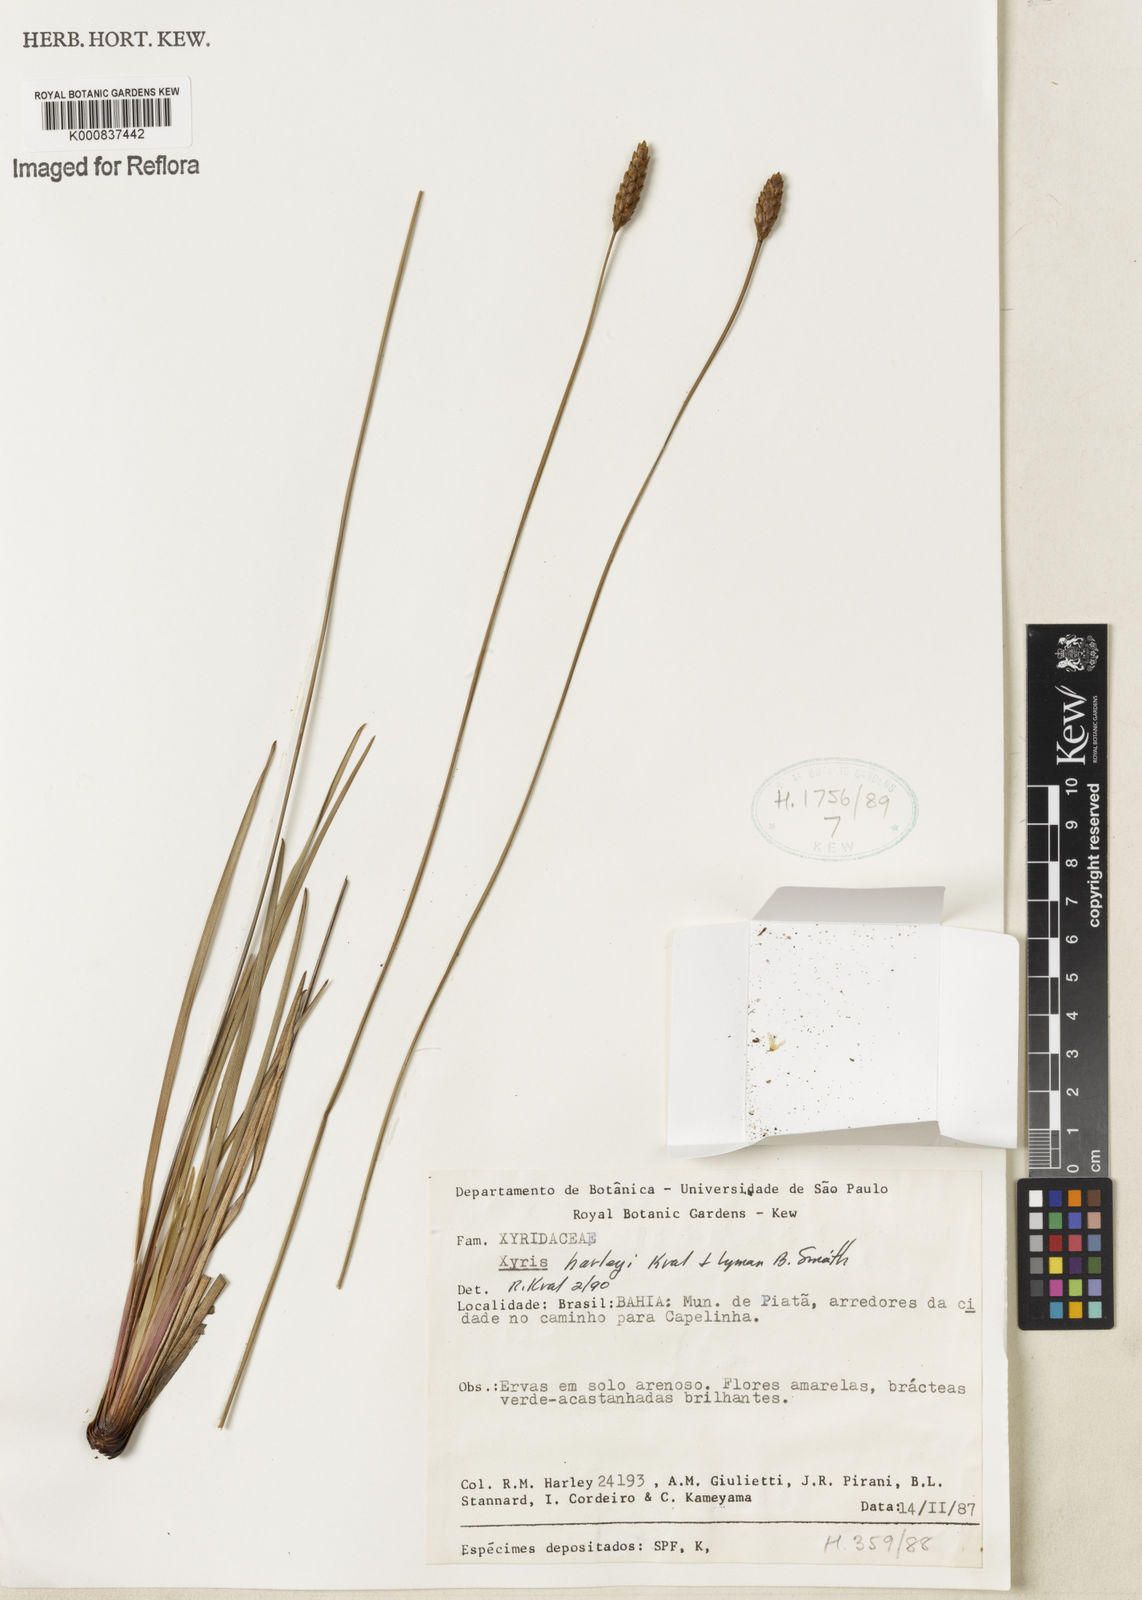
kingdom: Plantae
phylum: Tracheophyta
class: Liliopsida
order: Poales
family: Xyridaceae
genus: Xyris
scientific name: Xyris harleyi
